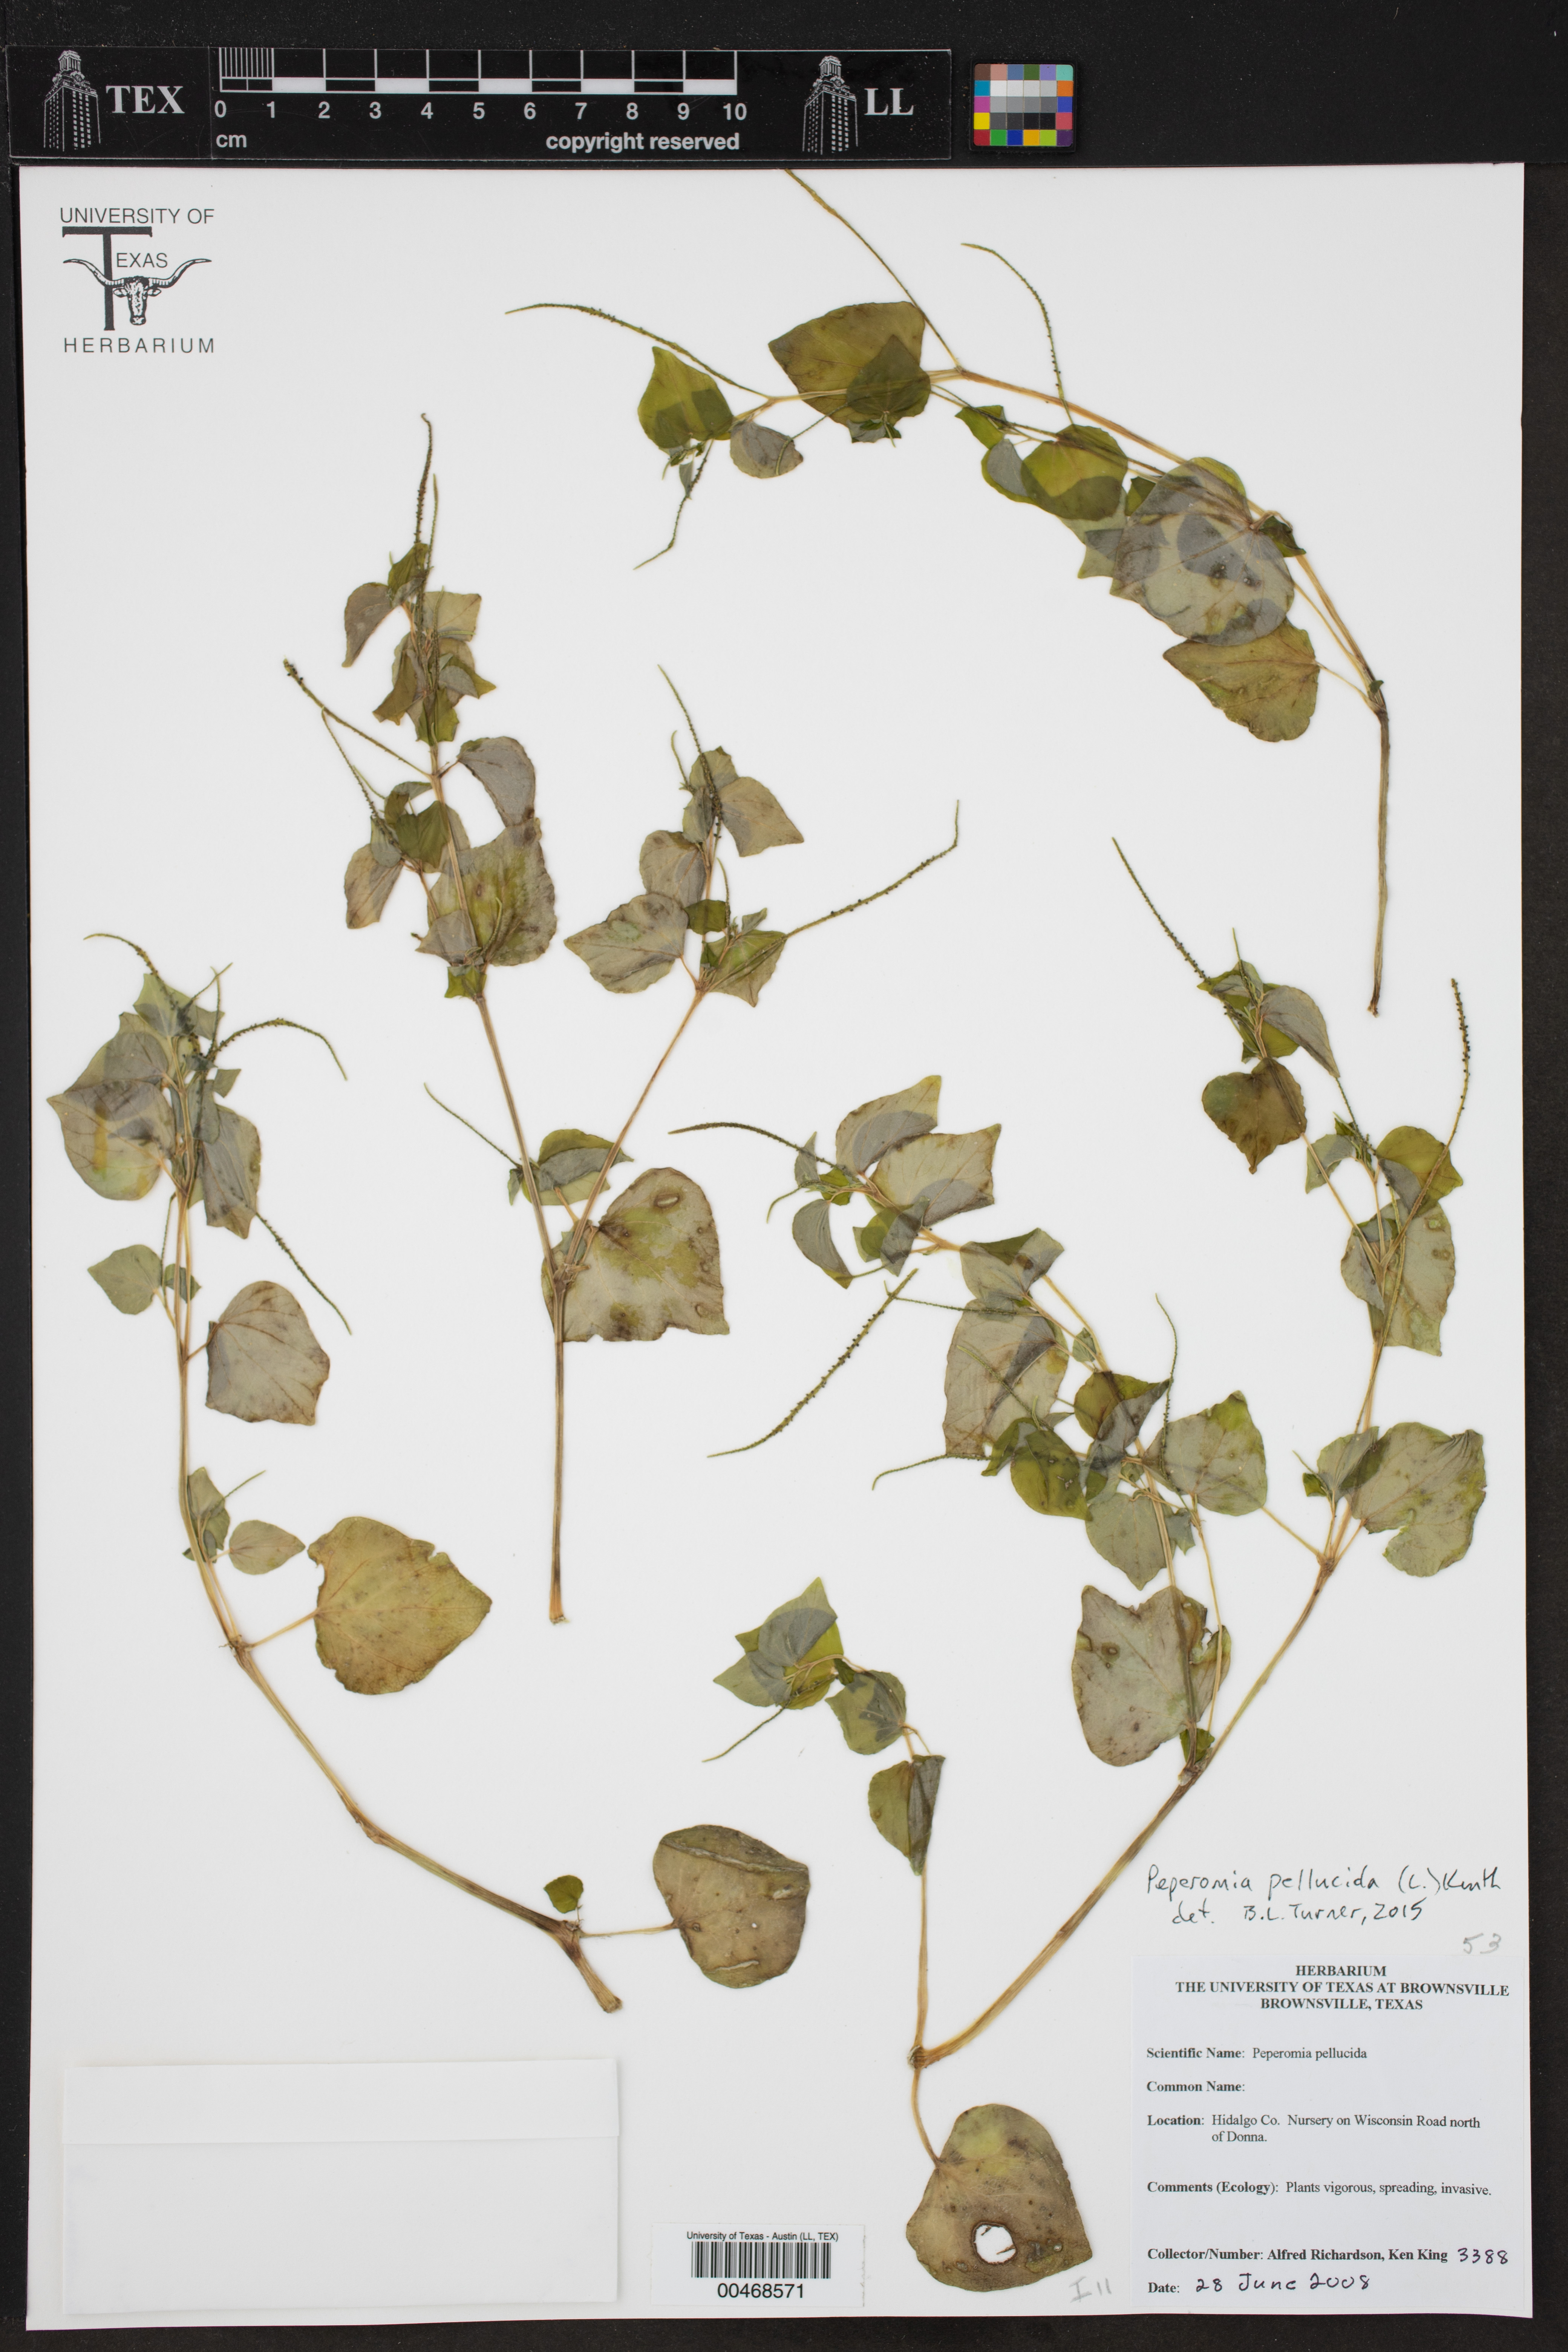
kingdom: Plantae
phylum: Tracheophyta
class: Magnoliopsida
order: Piperales
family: Piperaceae
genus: Peperomia
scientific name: Peperomia pellucida
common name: Man to man
